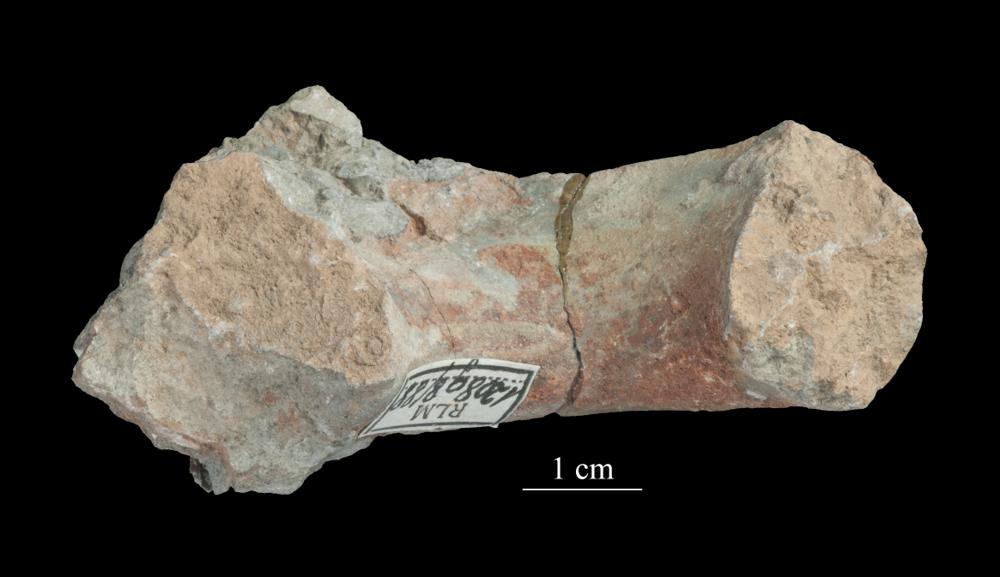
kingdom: Animalia
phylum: Mollusca
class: Gastropoda
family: Lesueurillidae
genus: Mestoronema
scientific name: Mestoronema Euomphalus marginalis
